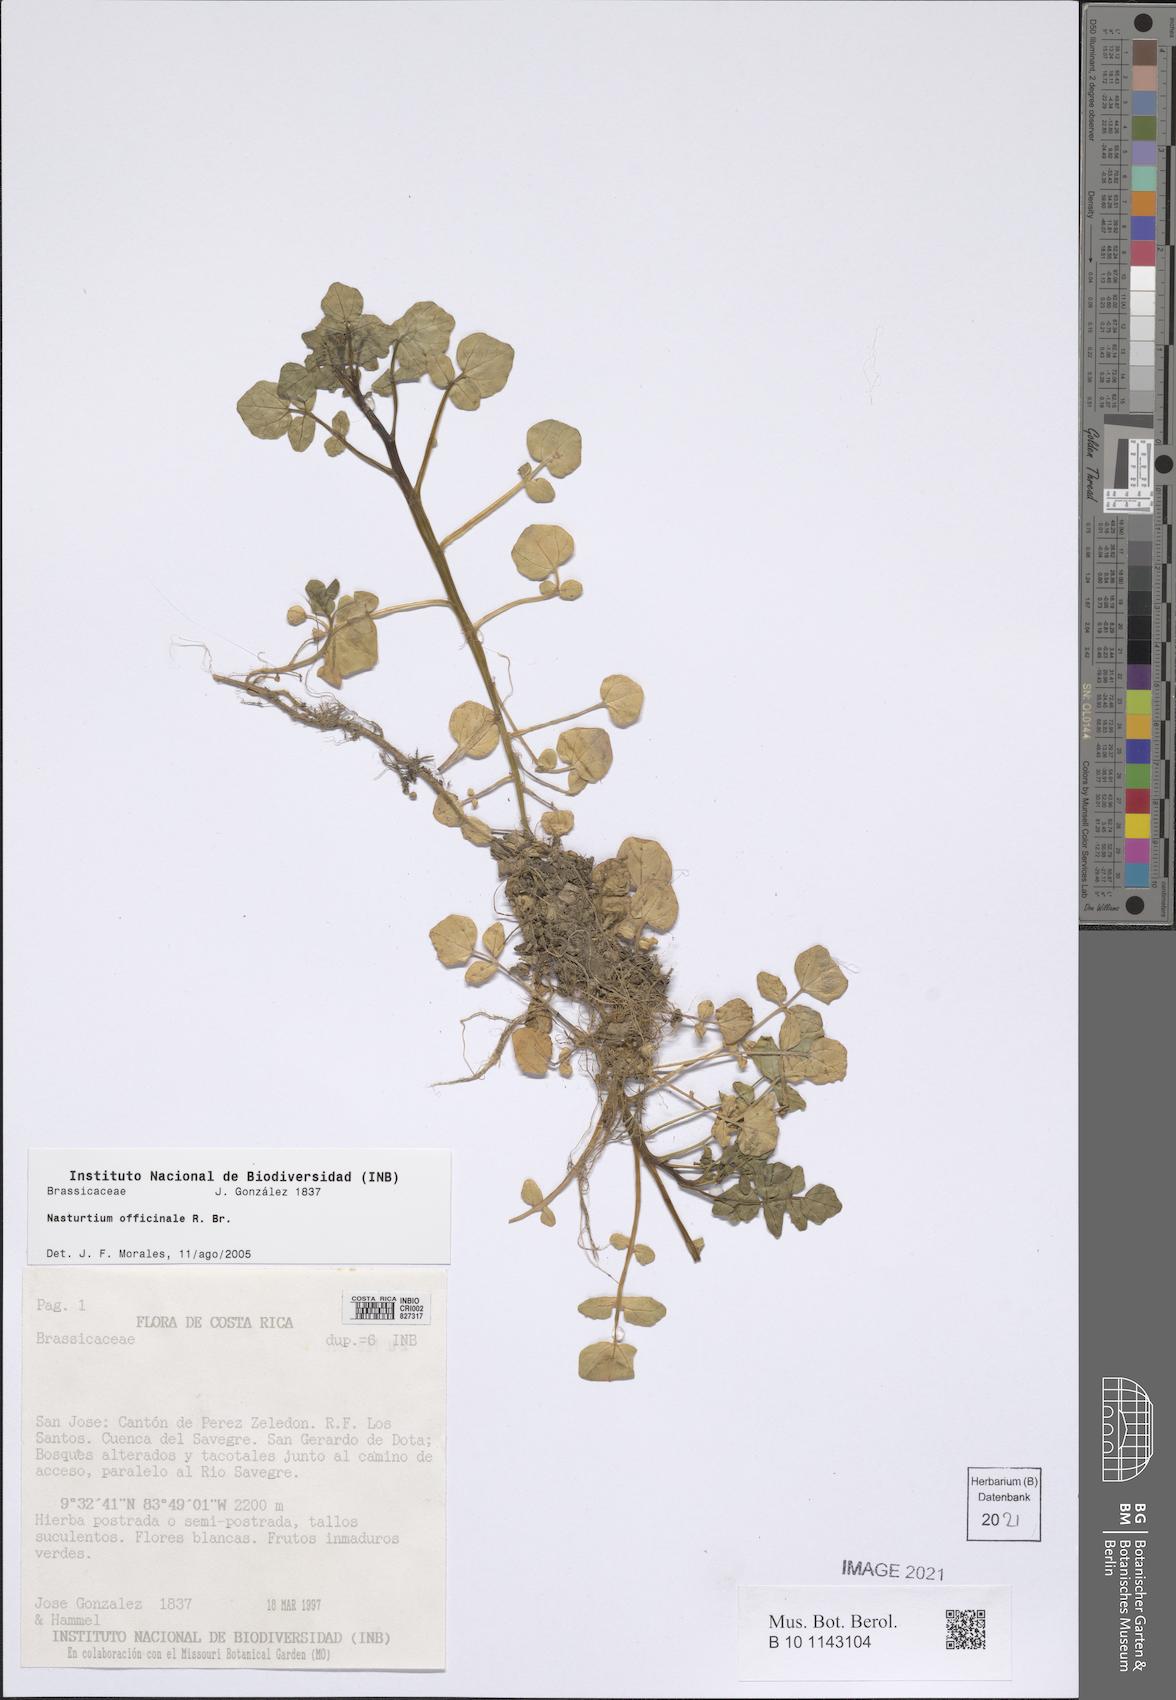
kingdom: Plantae
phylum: Tracheophyta
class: Magnoliopsida
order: Brassicales
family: Brassicaceae
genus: Nasturtium
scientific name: Nasturtium officinale
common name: Watercress
